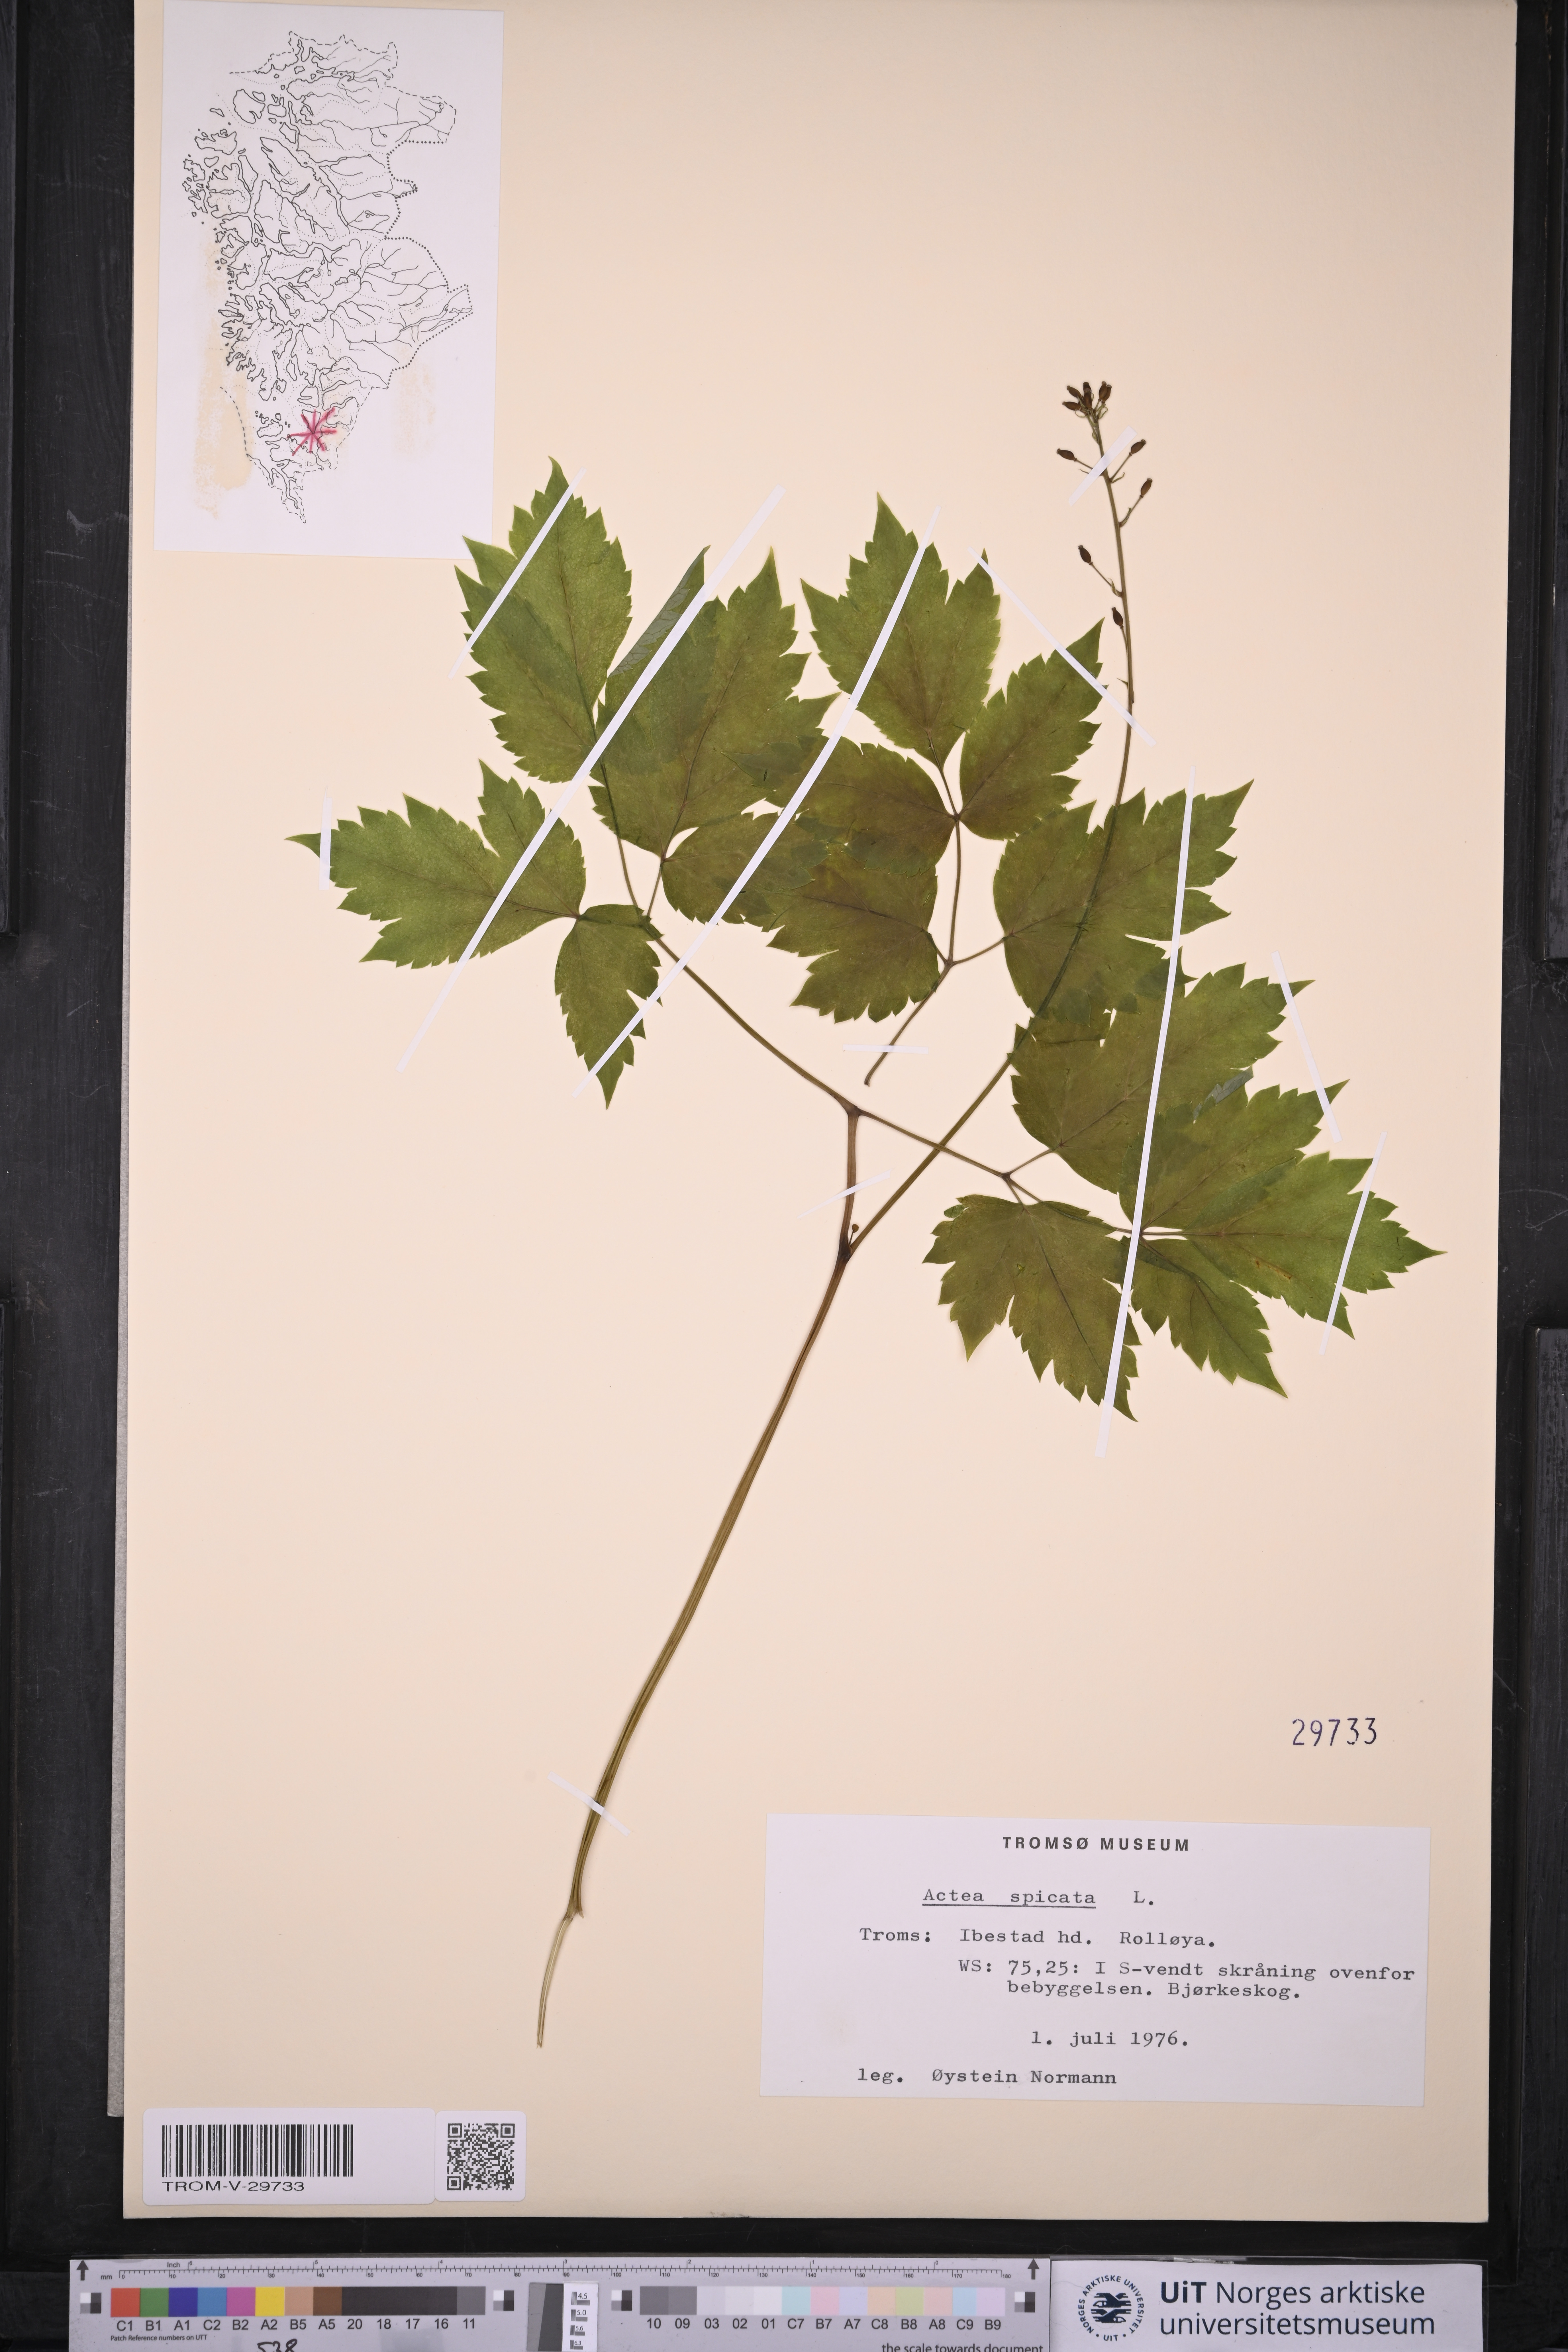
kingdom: Plantae
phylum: Tracheophyta
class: Magnoliopsida
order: Ranunculales
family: Ranunculaceae
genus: Actaea
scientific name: Actaea spicata
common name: Baneberry
